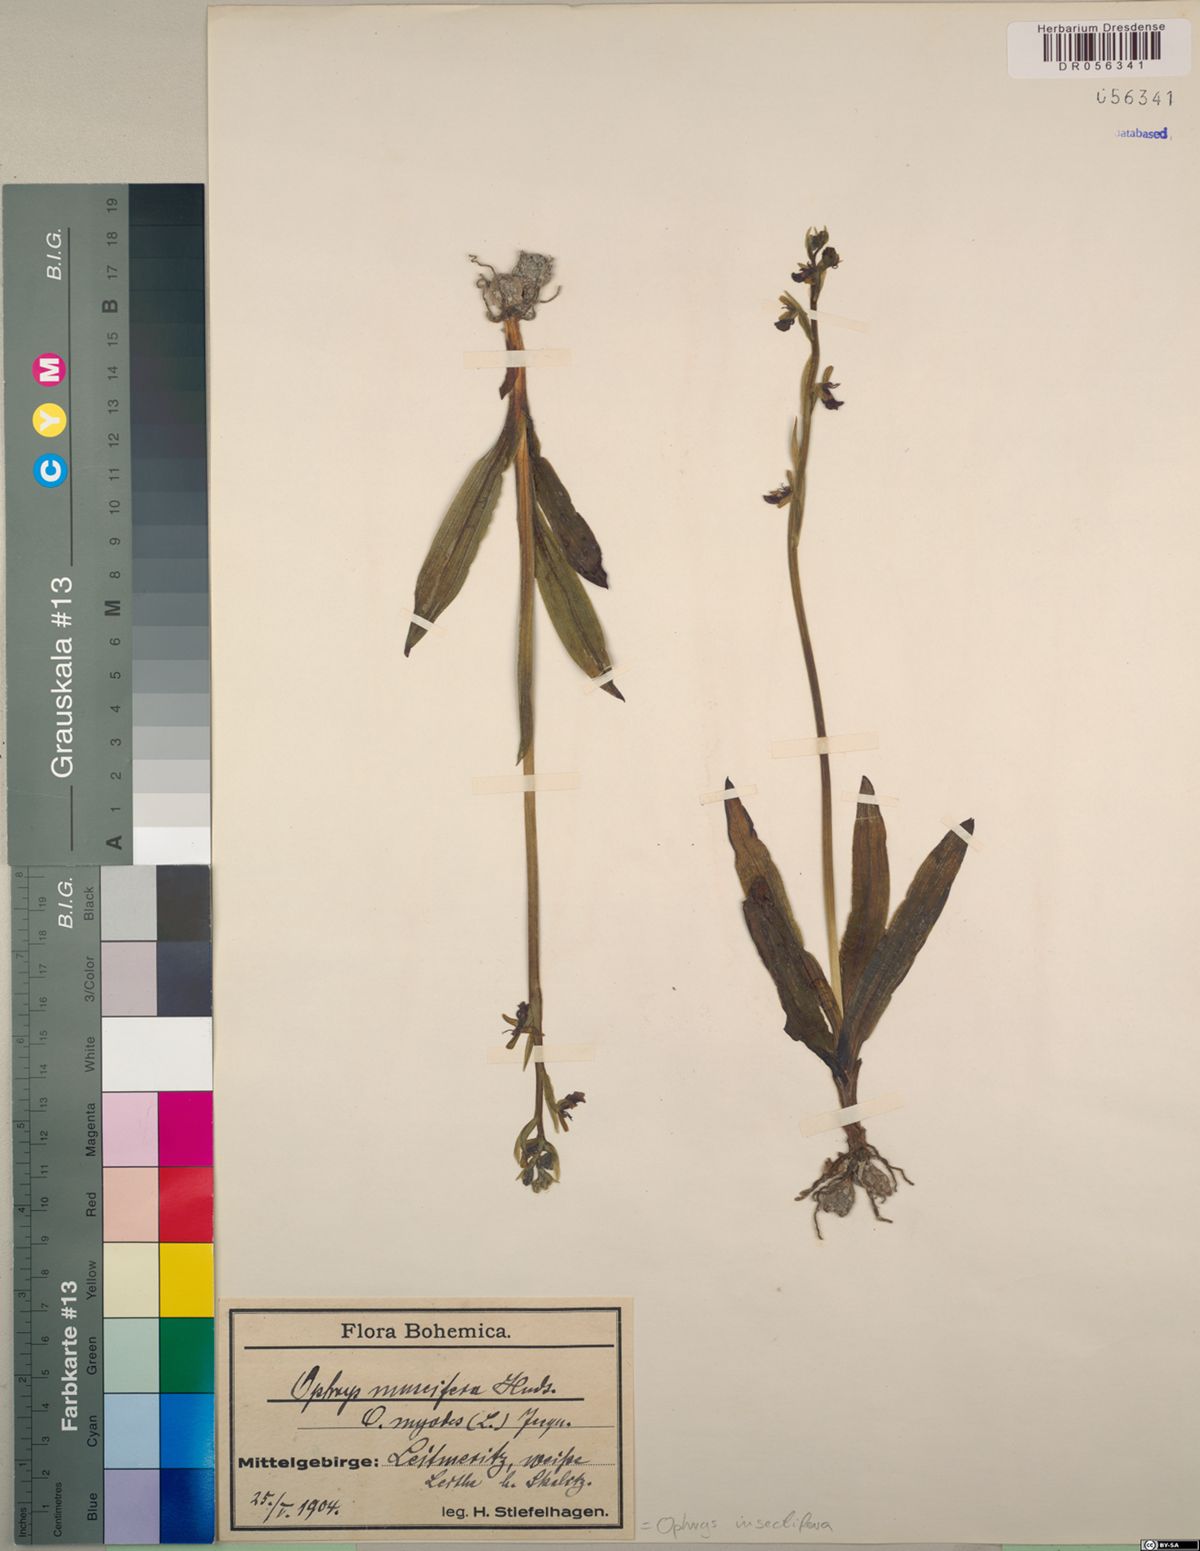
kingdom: Plantae
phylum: Tracheophyta
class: Liliopsida
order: Asparagales
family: Orchidaceae
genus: Ophrys
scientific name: Ophrys insectifera
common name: Fly orchid
